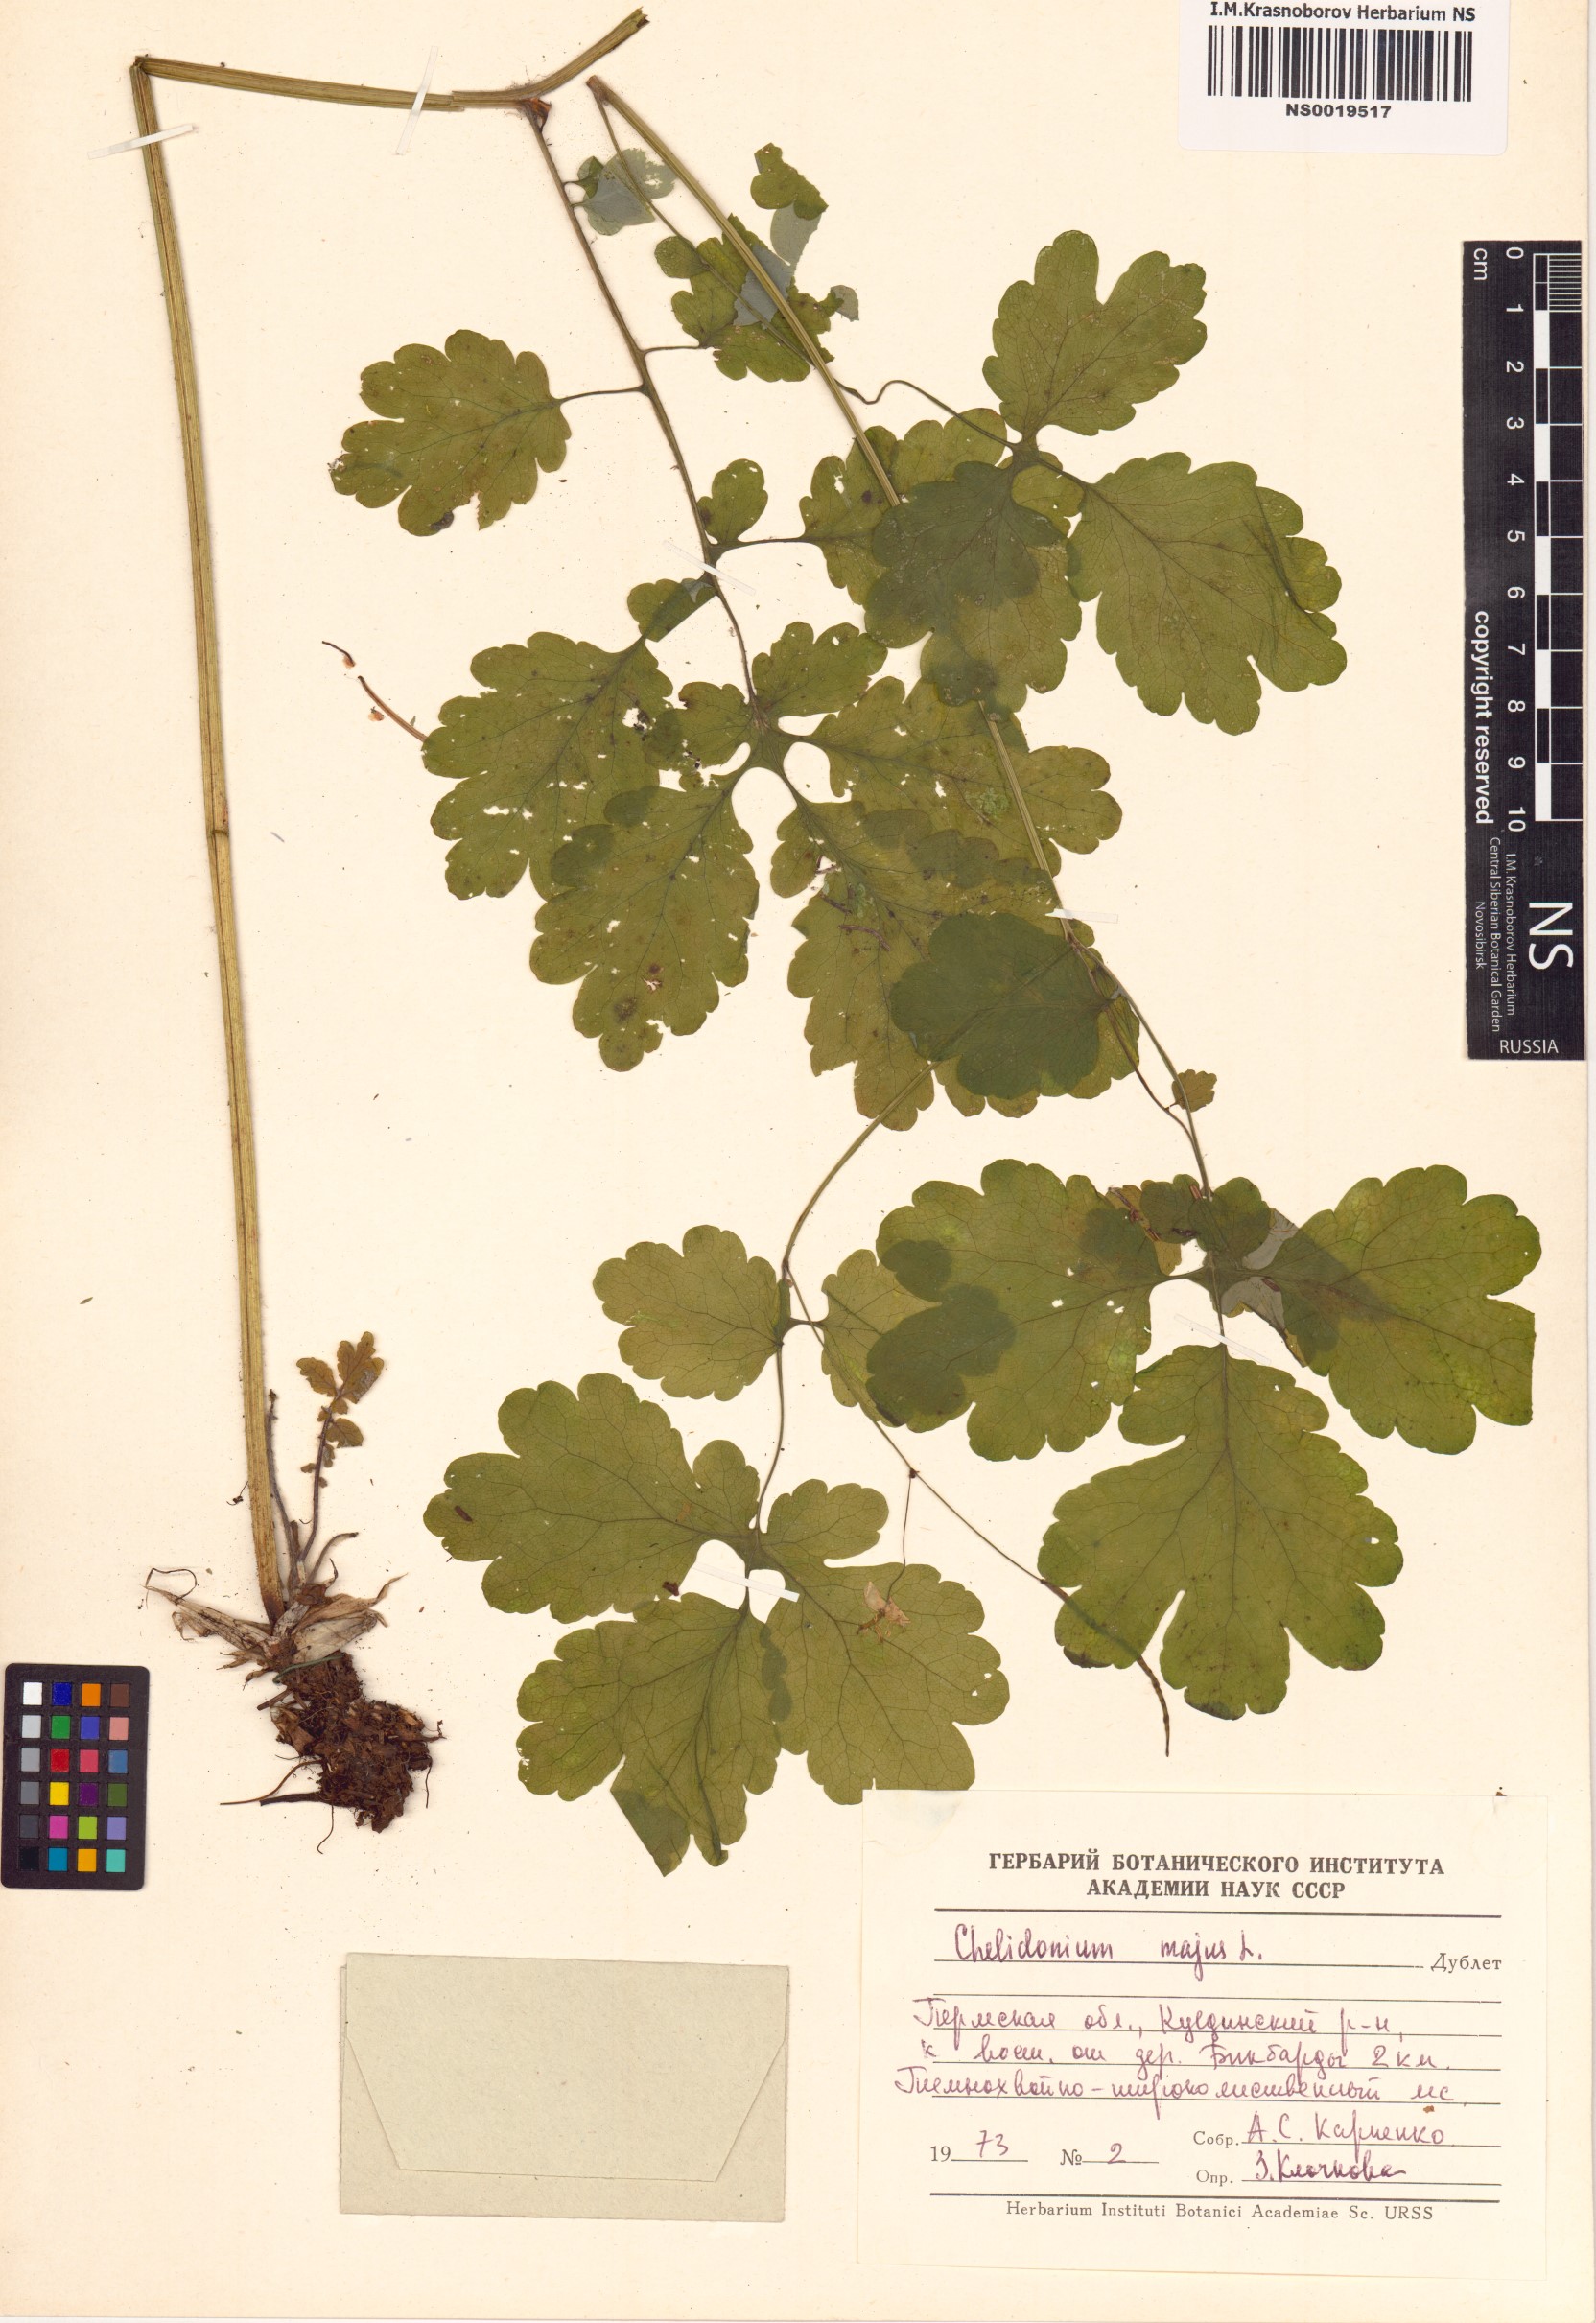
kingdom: Plantae
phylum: Tracheophyta
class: Magnoliopsida
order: Ranunculales
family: Papaveraceae
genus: Chelidonium
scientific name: Chelidonium majus
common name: Greater celandine
